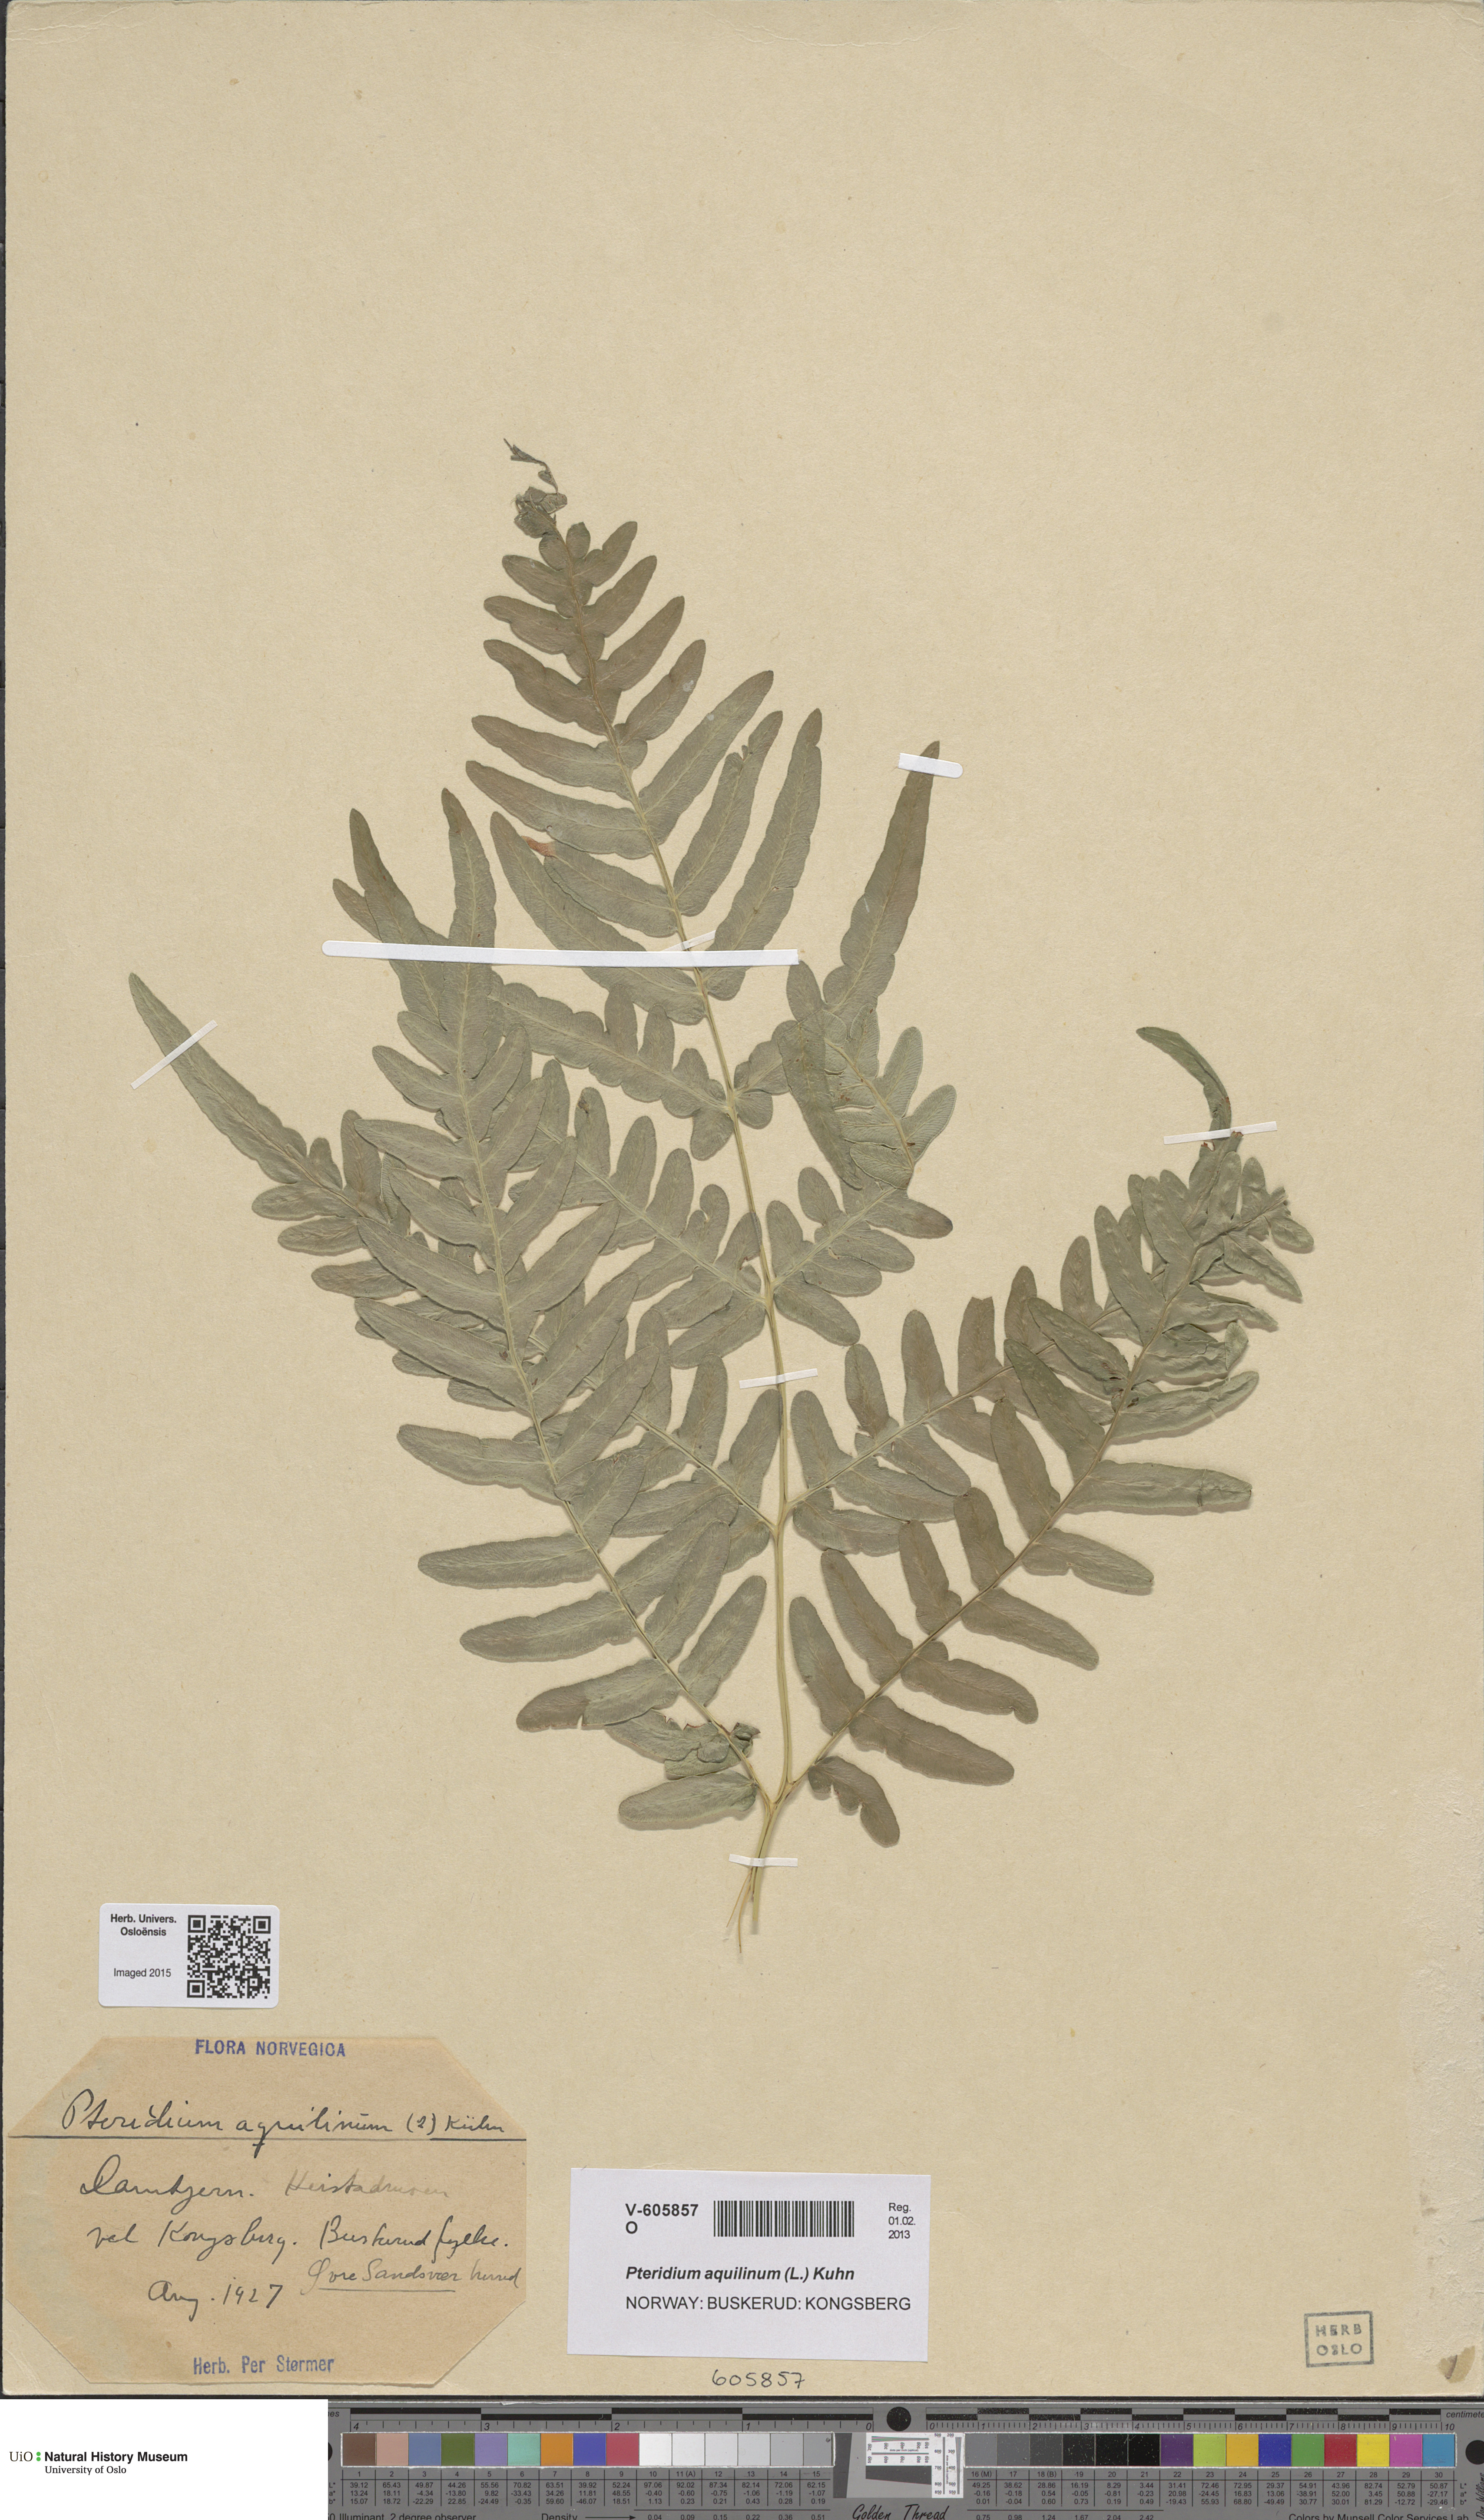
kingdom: Plantae
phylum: Tracheophyta
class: Polypodiopsida
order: Polypodiales
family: Dennstaedtiaceae
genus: Pteridium
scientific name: Pteridium aquilinum
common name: Bracken
